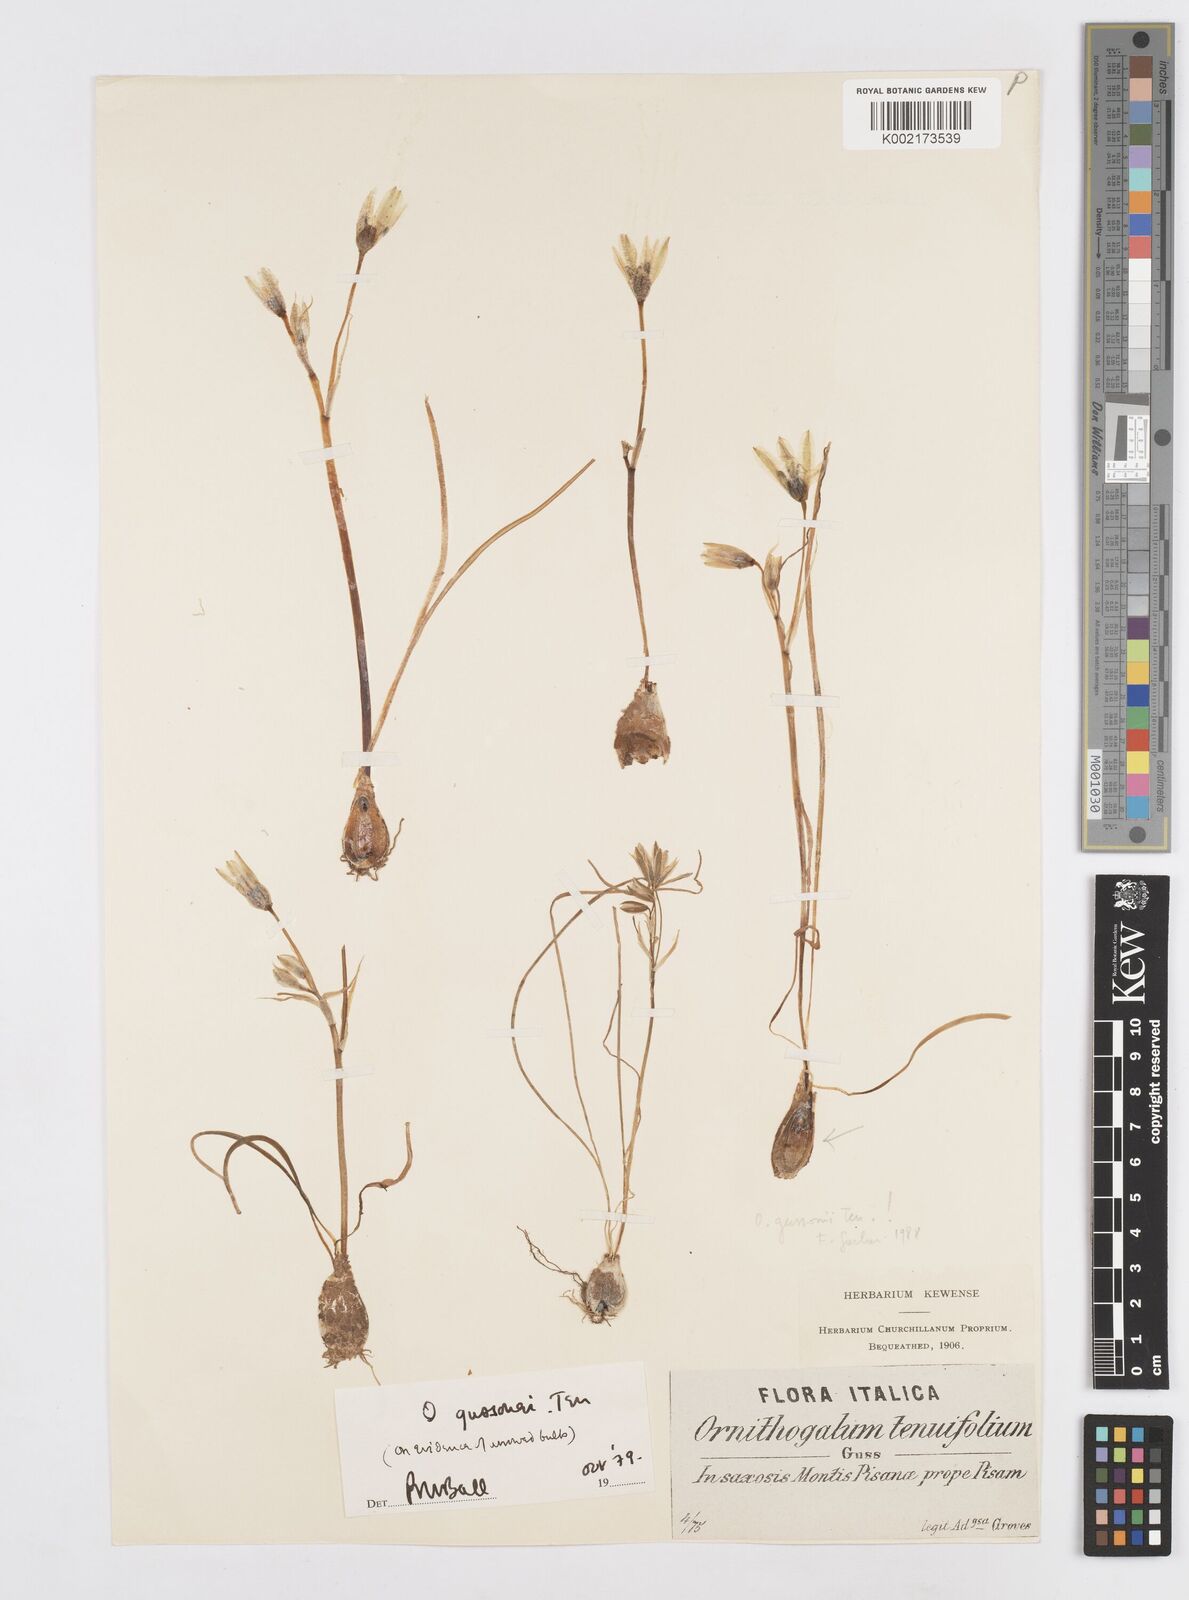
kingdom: Plantae
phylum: Tracheophyta
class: Liliopsida
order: Asparagales
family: Asparagaceae
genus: Ornithogalum
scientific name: Ornithogalum gussonei
